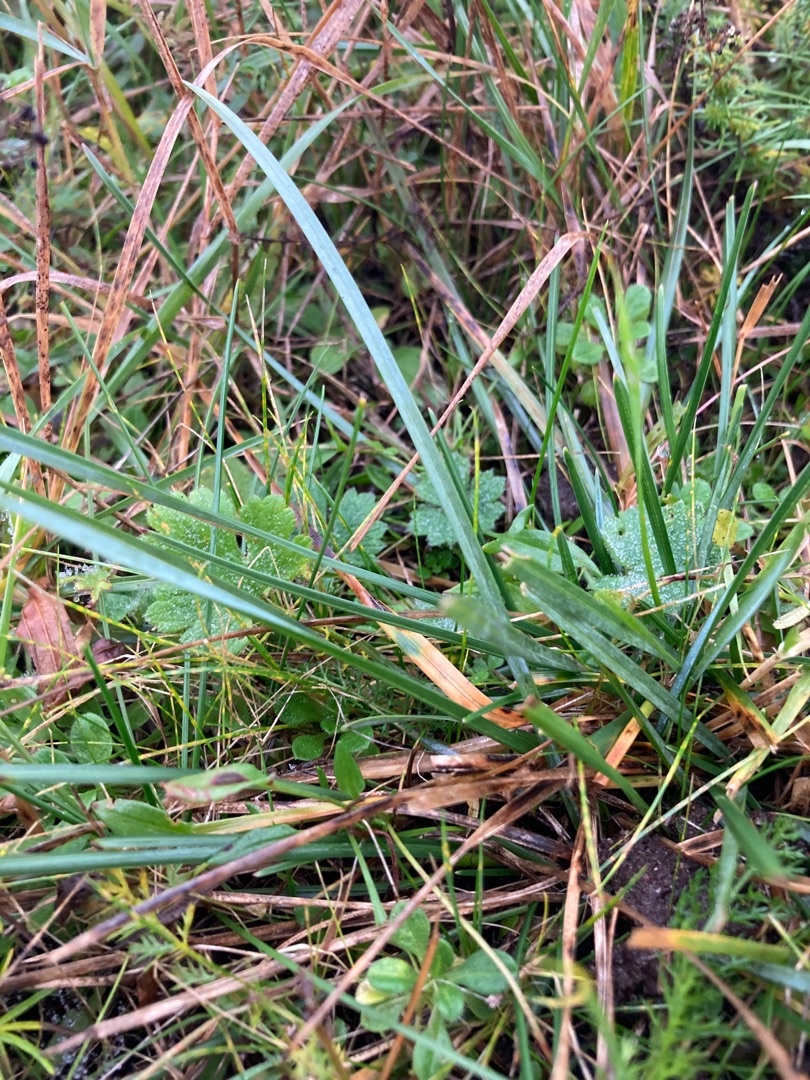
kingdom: Plantae
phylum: Tracheophyta
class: Liliopsida
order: Poales
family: Poaceae
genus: Helictochloa
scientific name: Helictochloa pratensis
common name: Eng-havre
